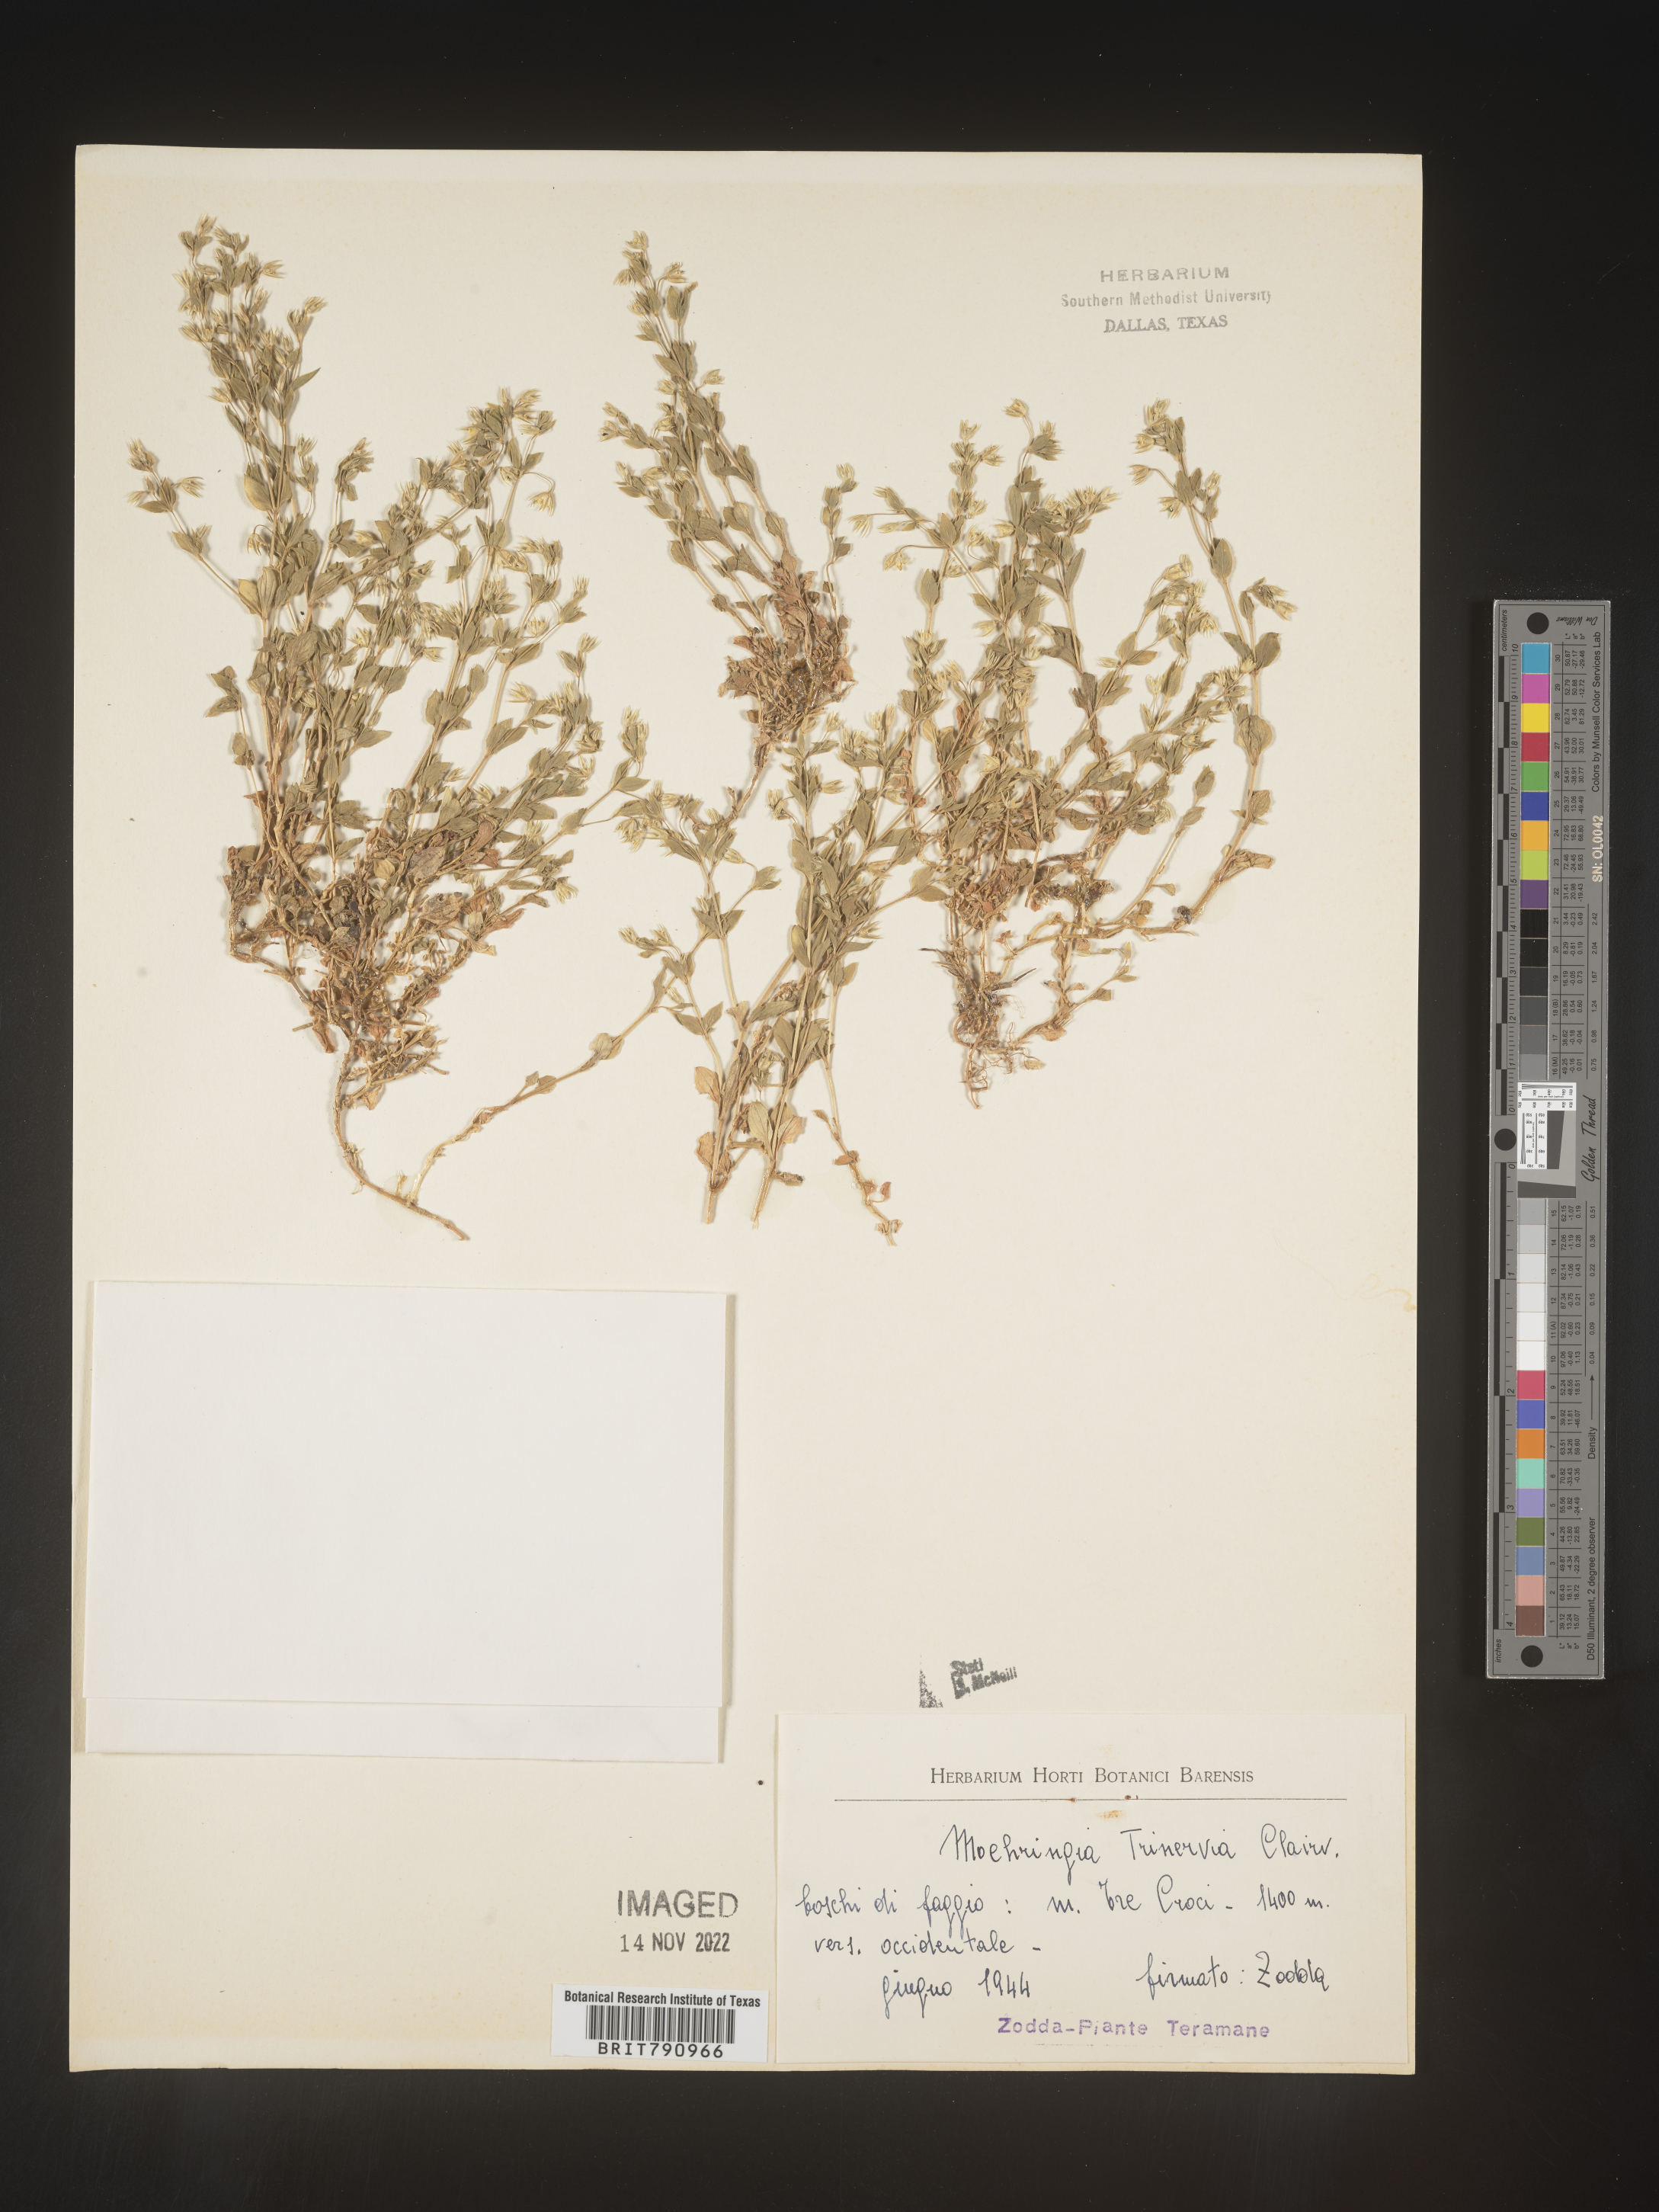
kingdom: Plantae
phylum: Tracheophyta
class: Magnoliopsida
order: Caryophyllales
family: Caryophyllaceae
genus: Moehringia
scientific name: Moehringia
